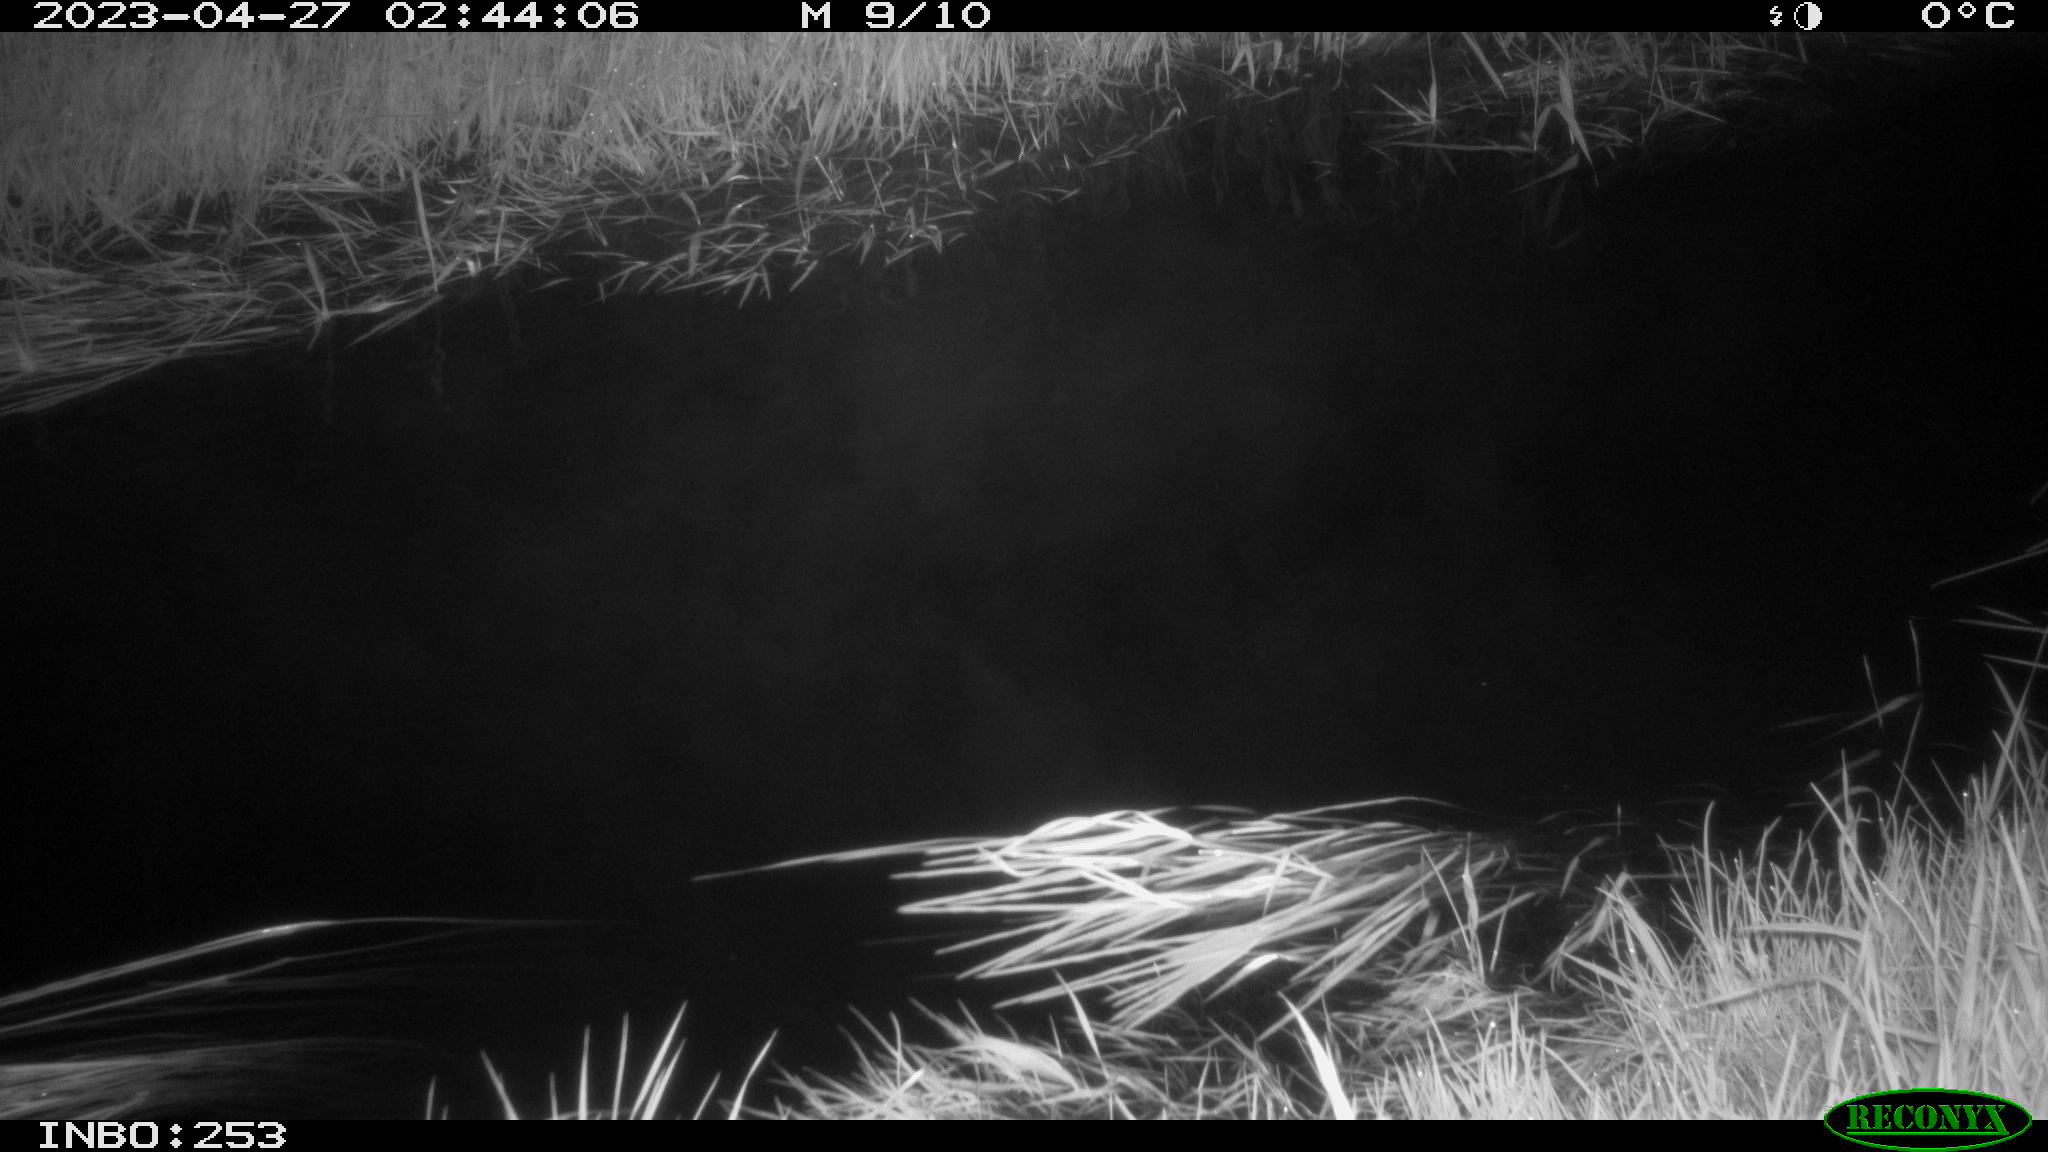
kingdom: Animalia
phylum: Chordata
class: Aves
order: Anseriformes
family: Anatidae
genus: Anas
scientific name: Anas
